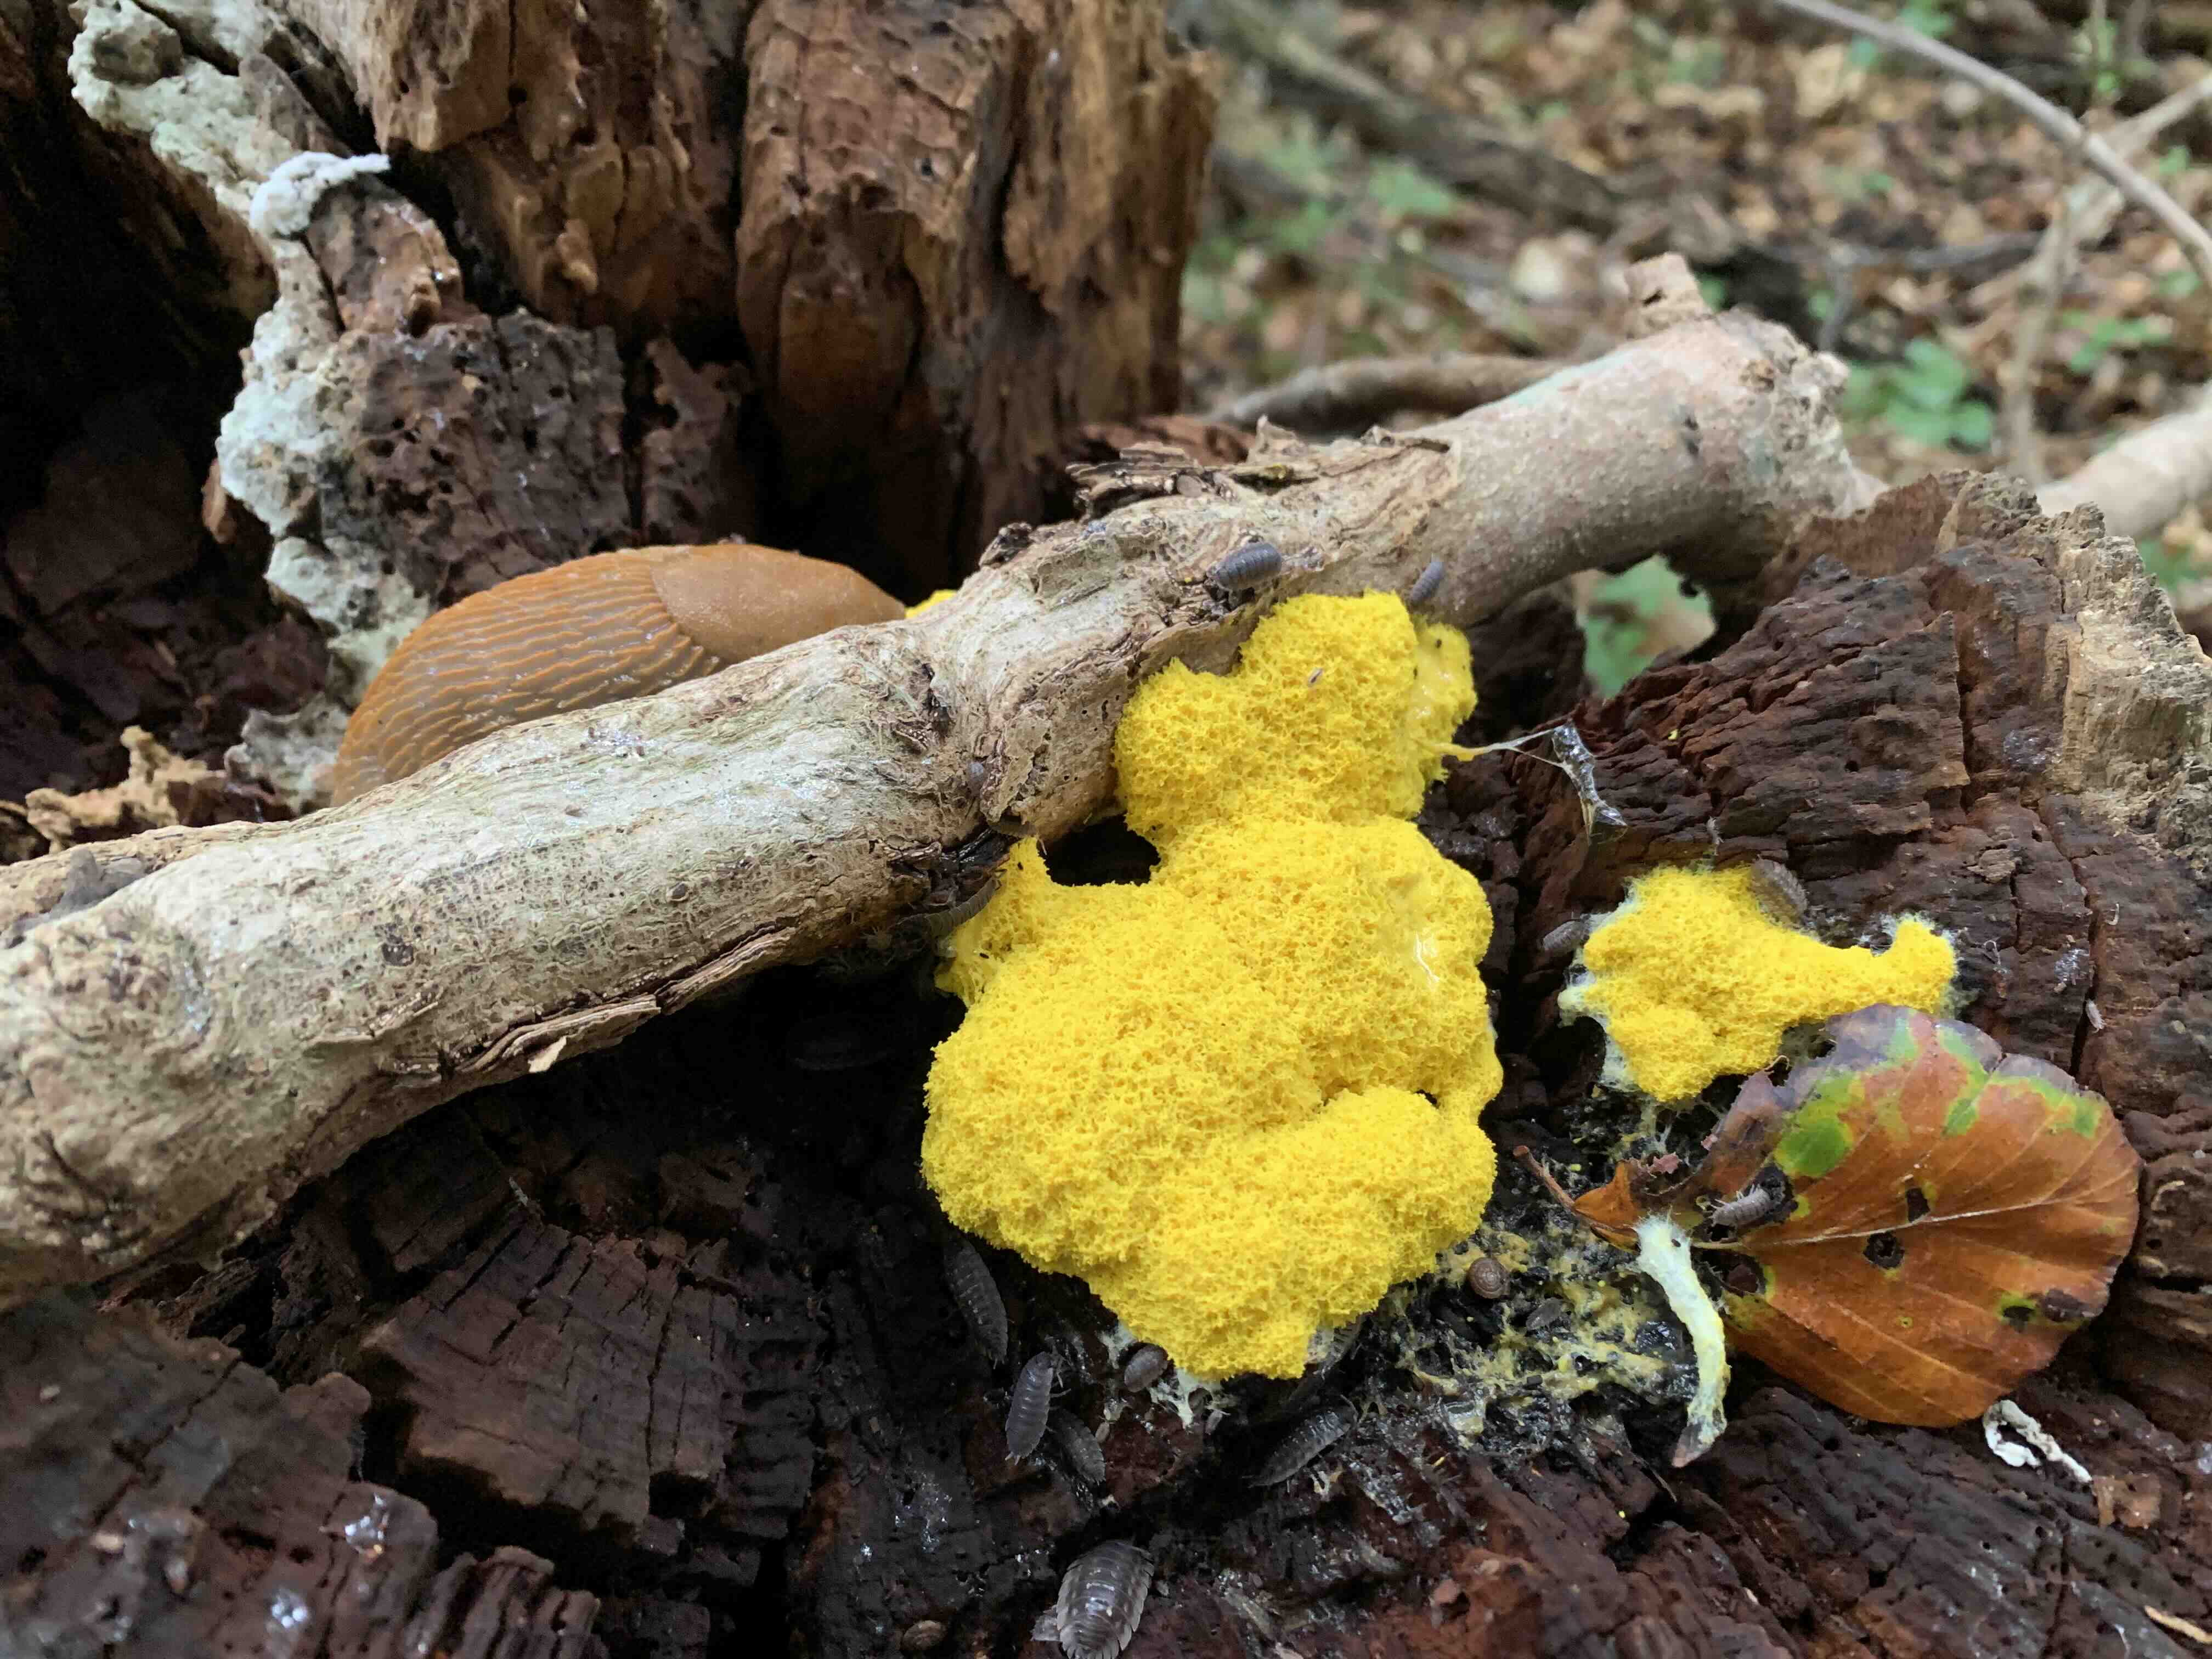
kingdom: Protozoa
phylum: Mycetozoa
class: Myxomycetes
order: Physarales
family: Physaraceae
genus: Fuligo
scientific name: Fuligo septica
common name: gul troldsmør
